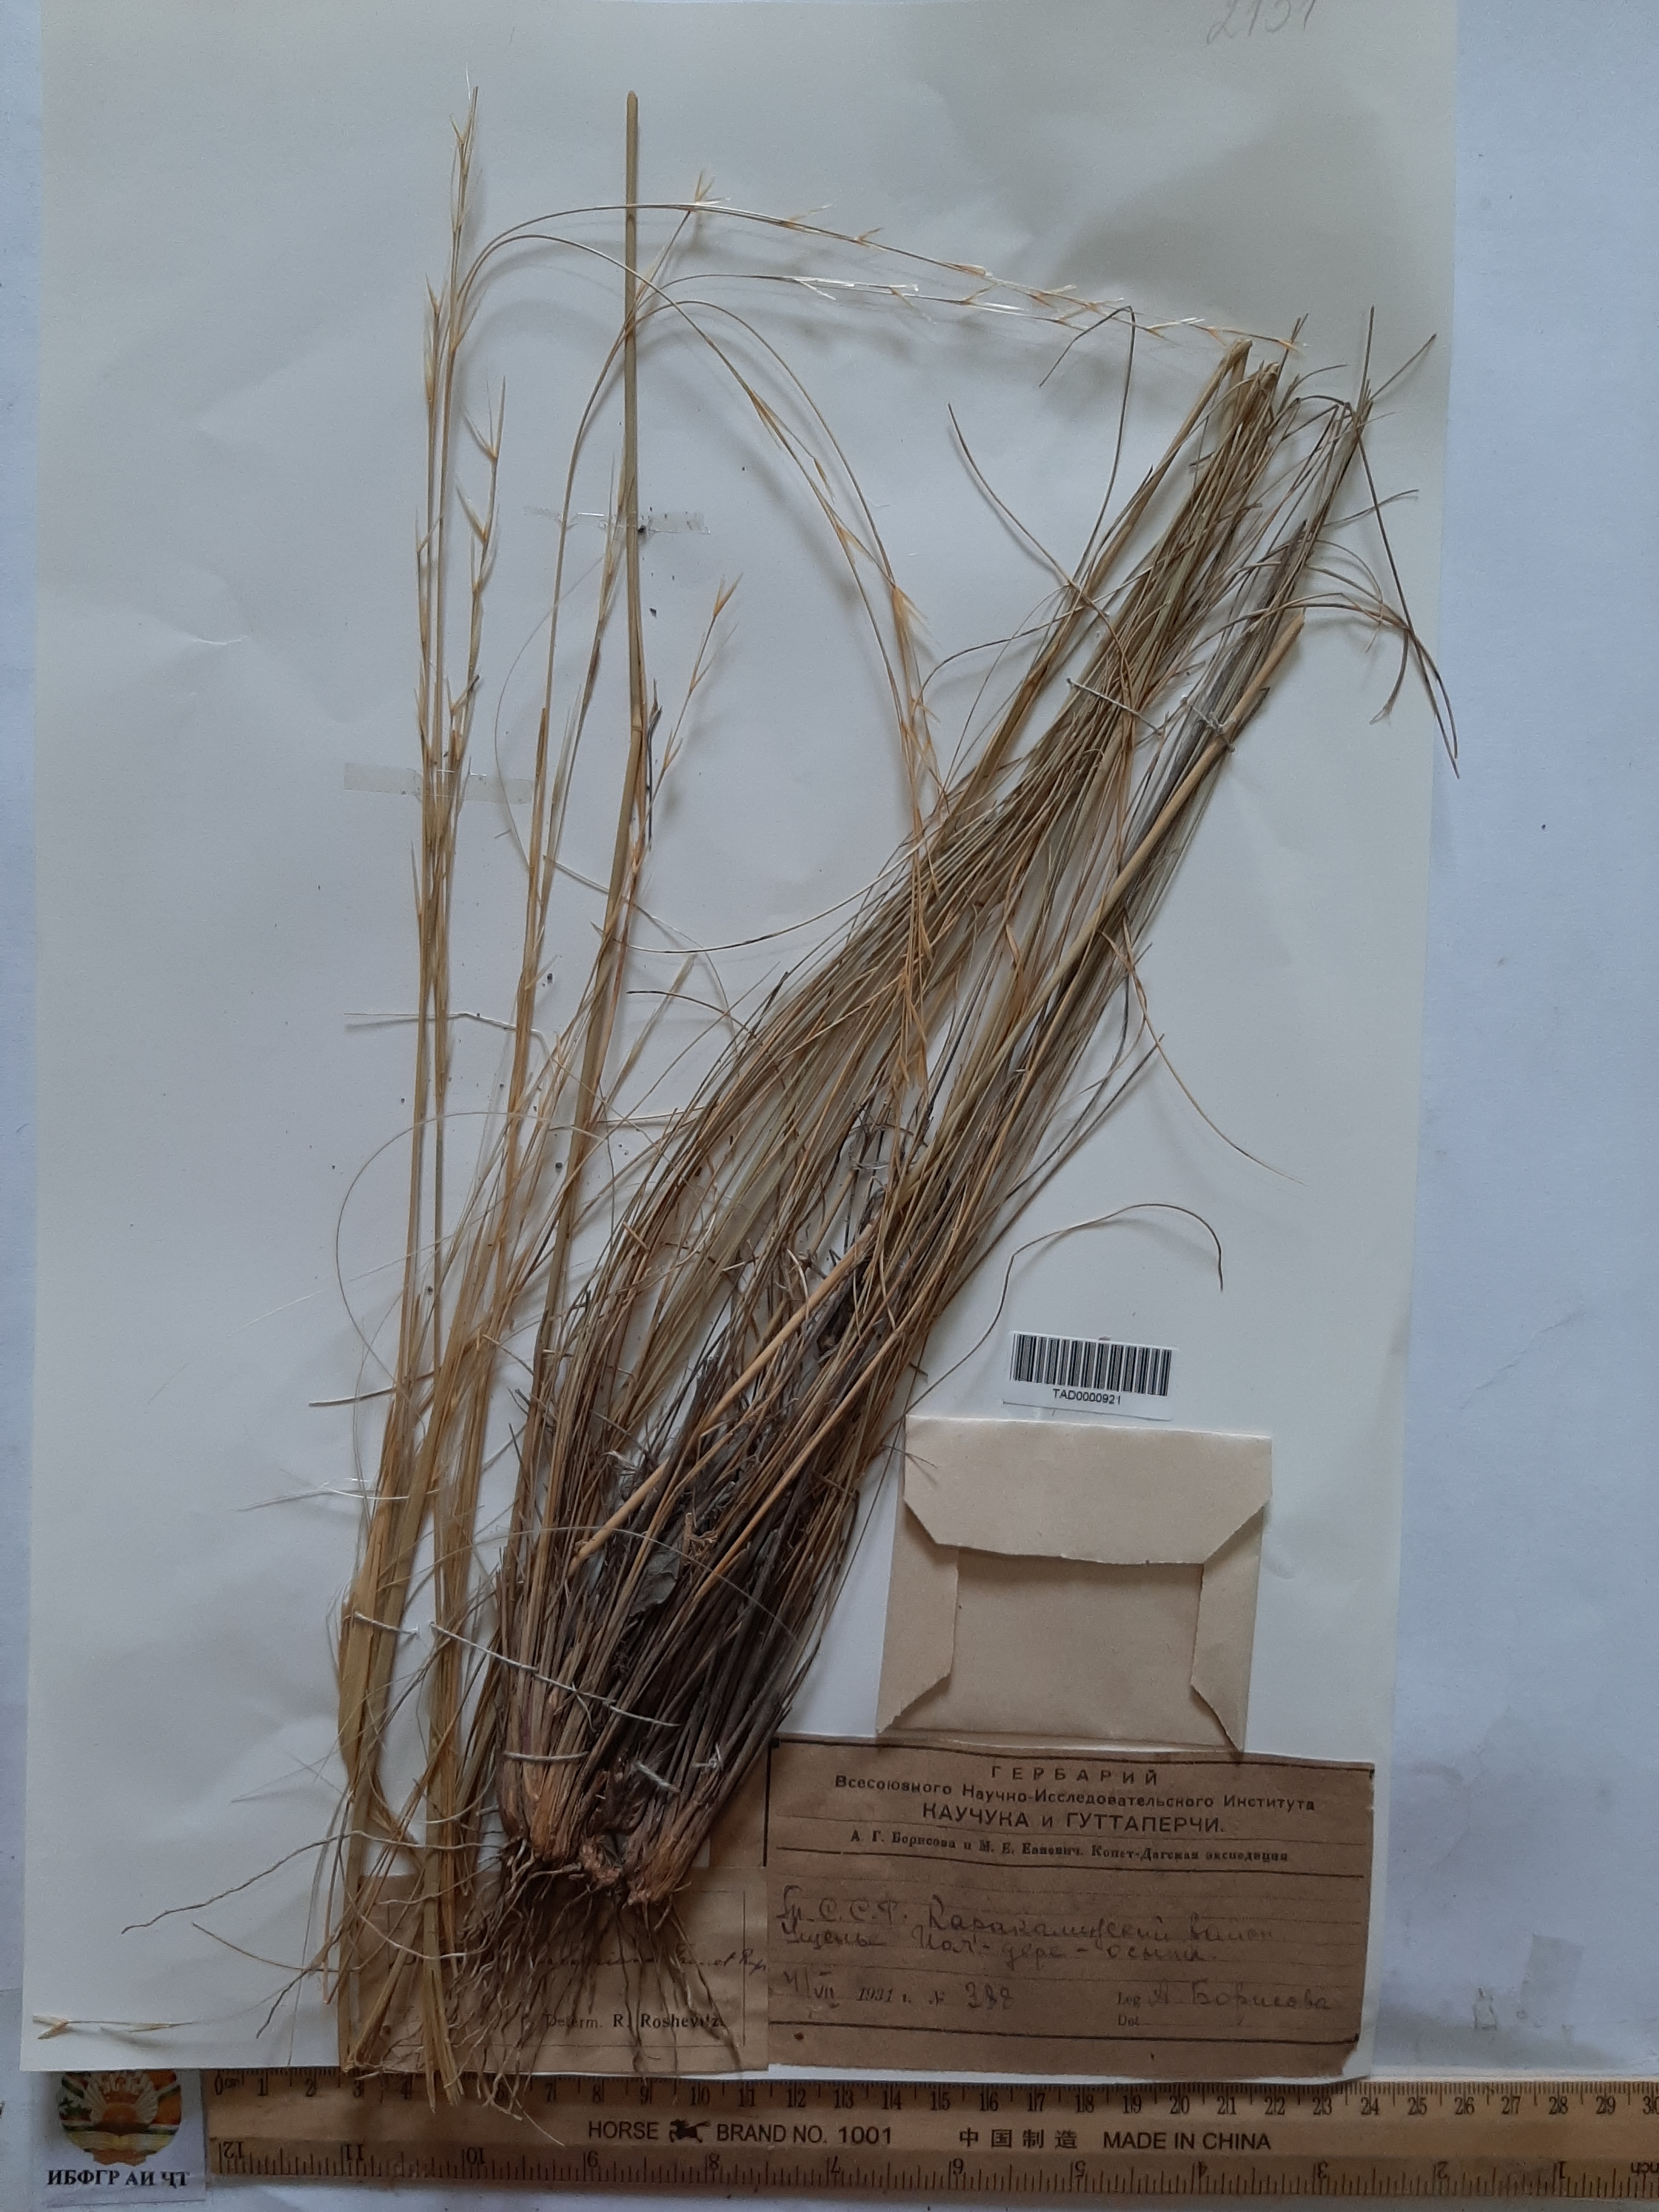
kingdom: Plantae
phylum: Tracheophyta
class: Liliopsida
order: Poales
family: Poaceae
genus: Stipa
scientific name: Stipa hohenackeriana
